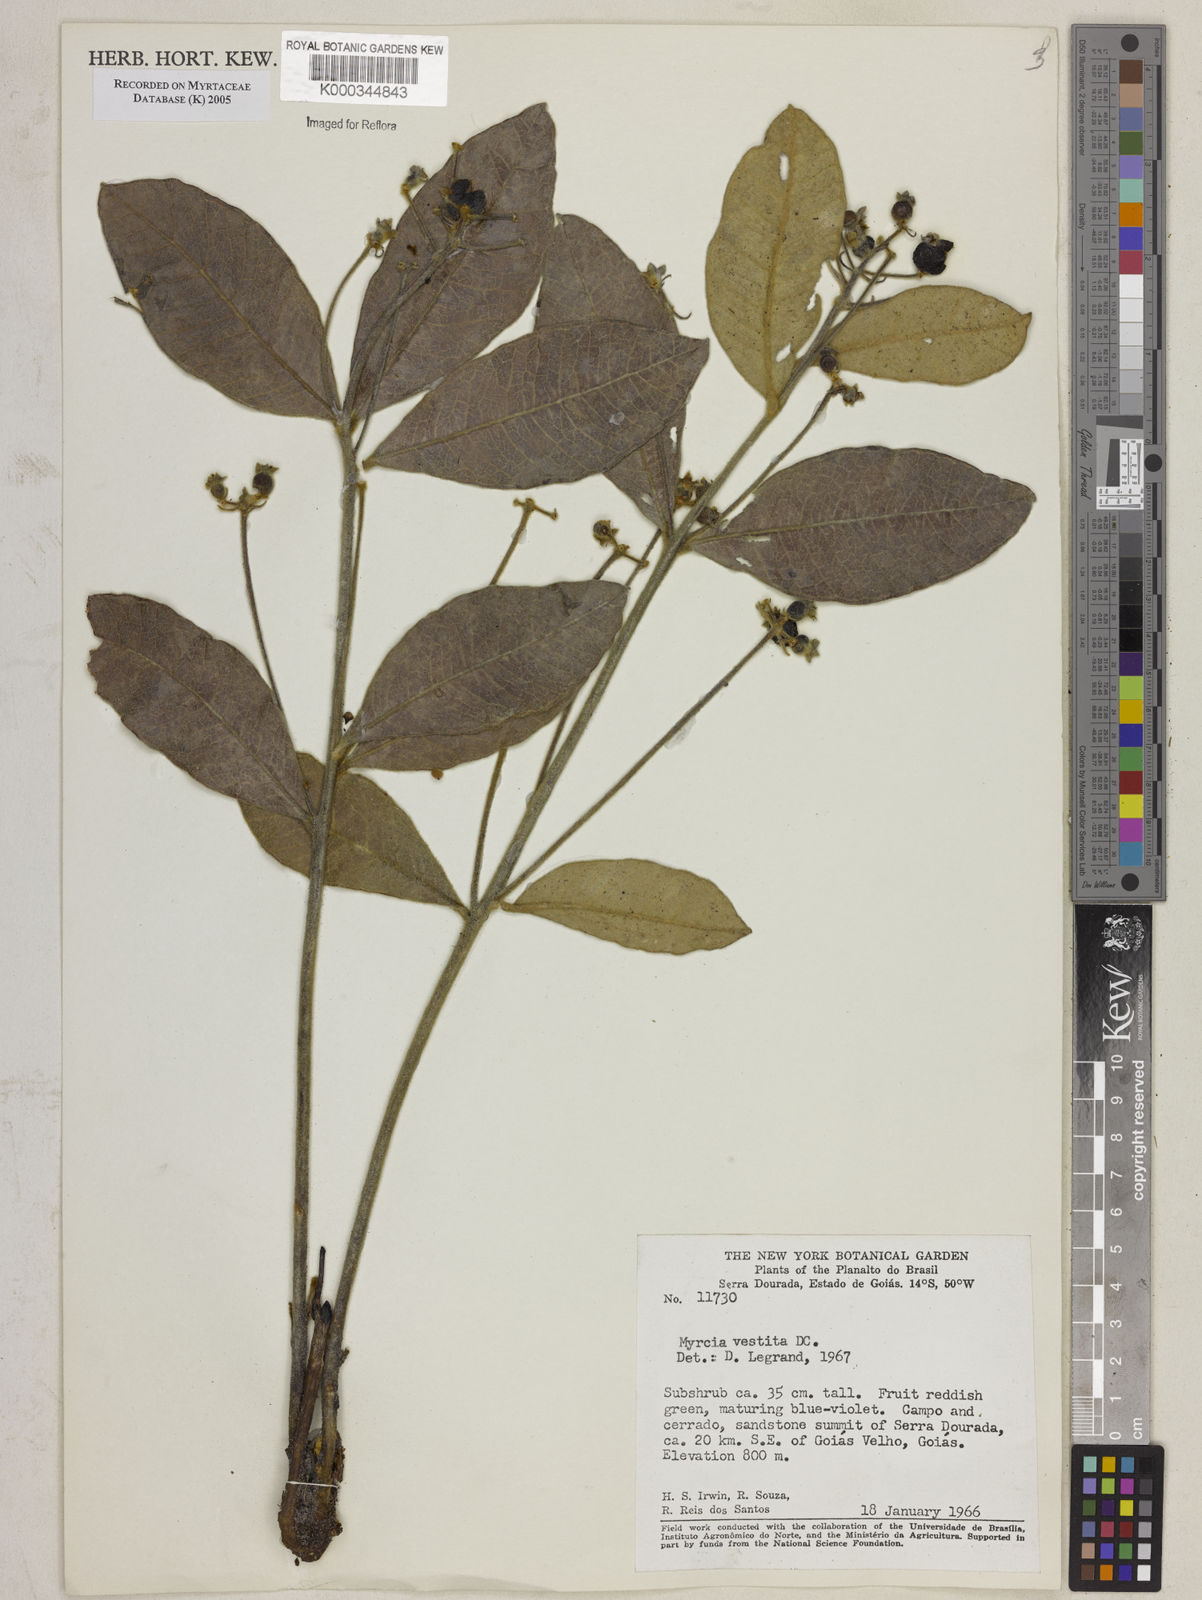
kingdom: Plantae
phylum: Tracheophyta
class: Magnoliopsida
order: Myrtales
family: Myrtaceae
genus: Myrcia
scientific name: Myrcia vestita
